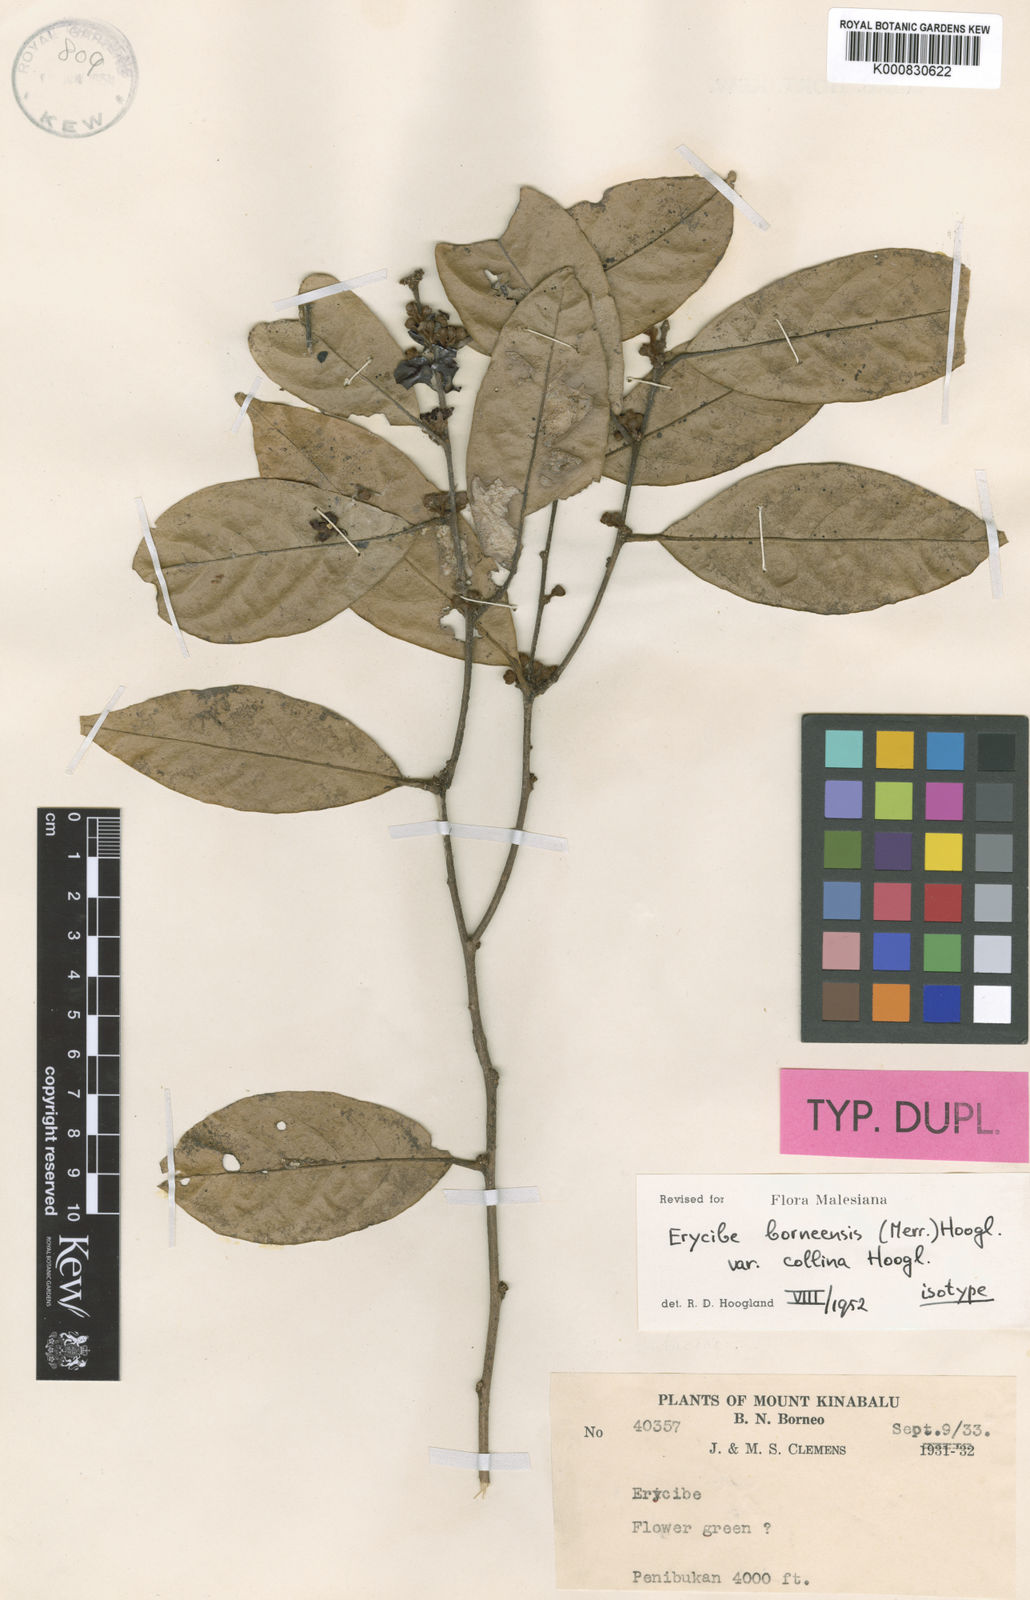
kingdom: Plantae
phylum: Tracheophyta
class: Magnoliopsida
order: Solanales
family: Convolvulaceae
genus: Erycibe
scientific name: Erycibe borneensis
